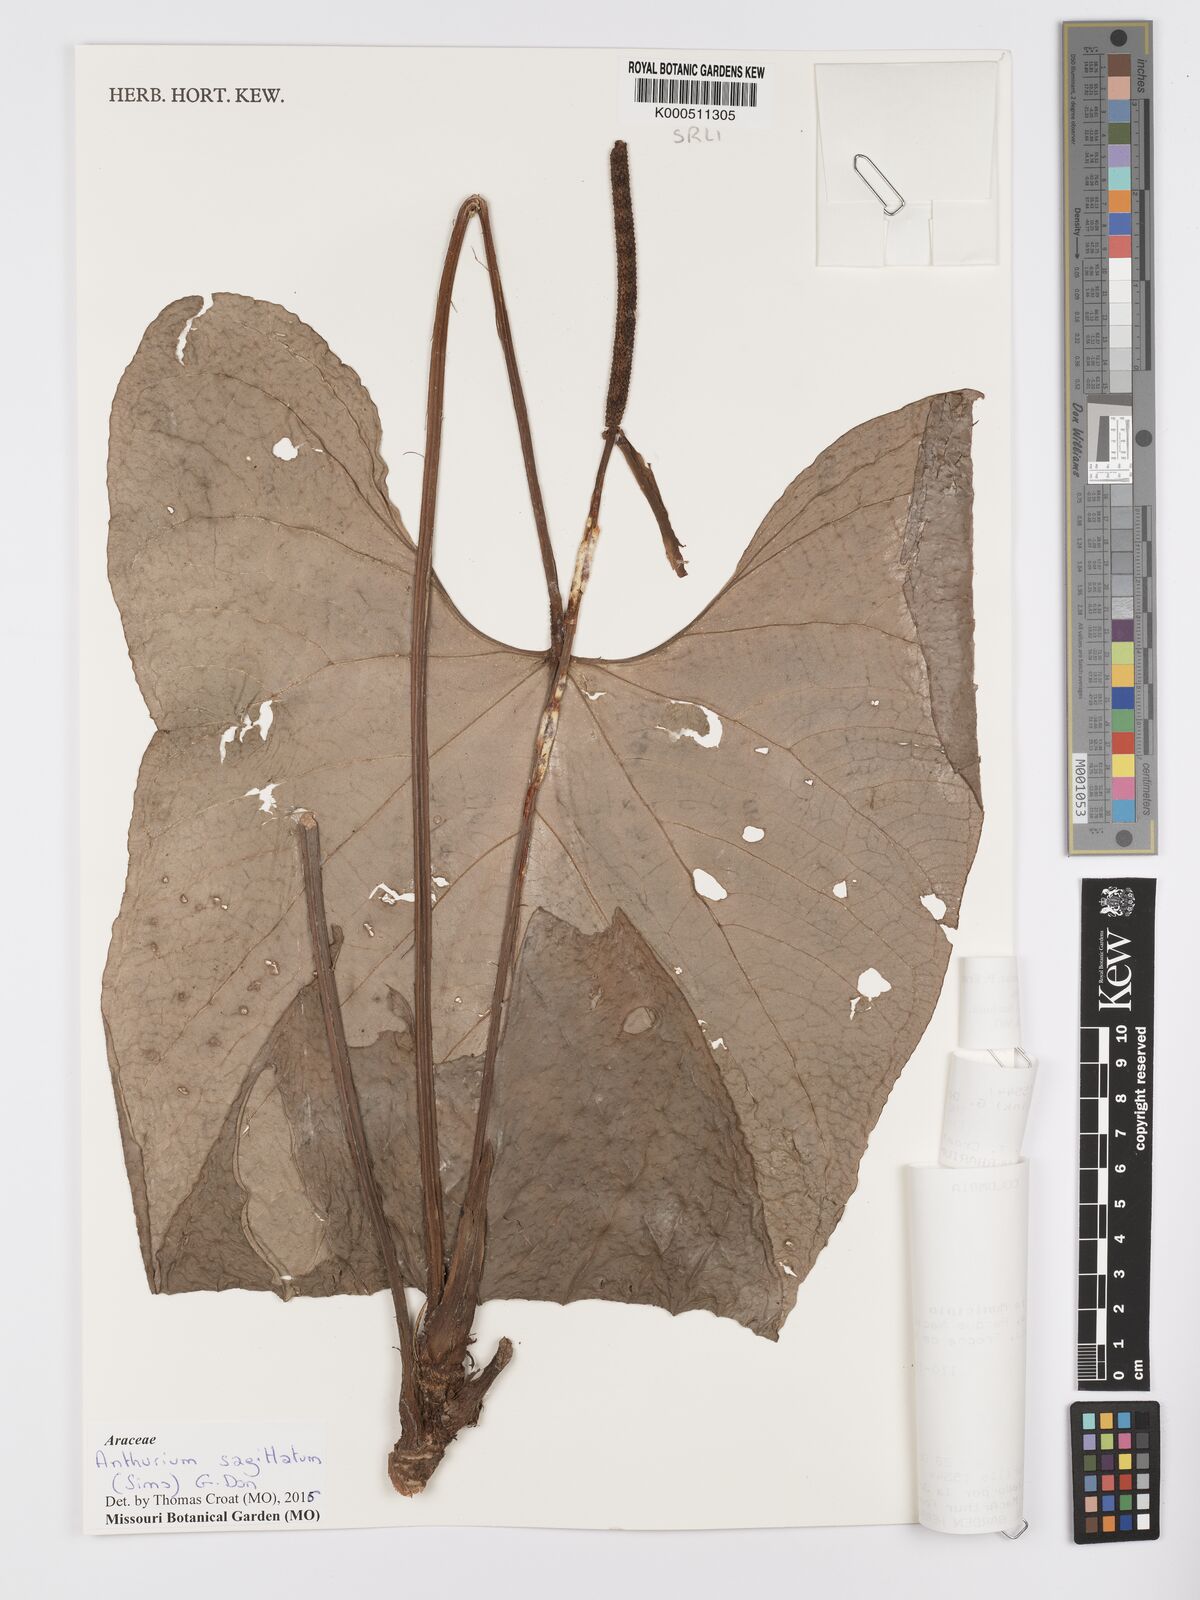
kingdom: Plantae
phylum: Tracheophyta
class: Liliopsida
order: Alismatales
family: Araceae
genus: Anthurium
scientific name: Anthurium sagittatum
